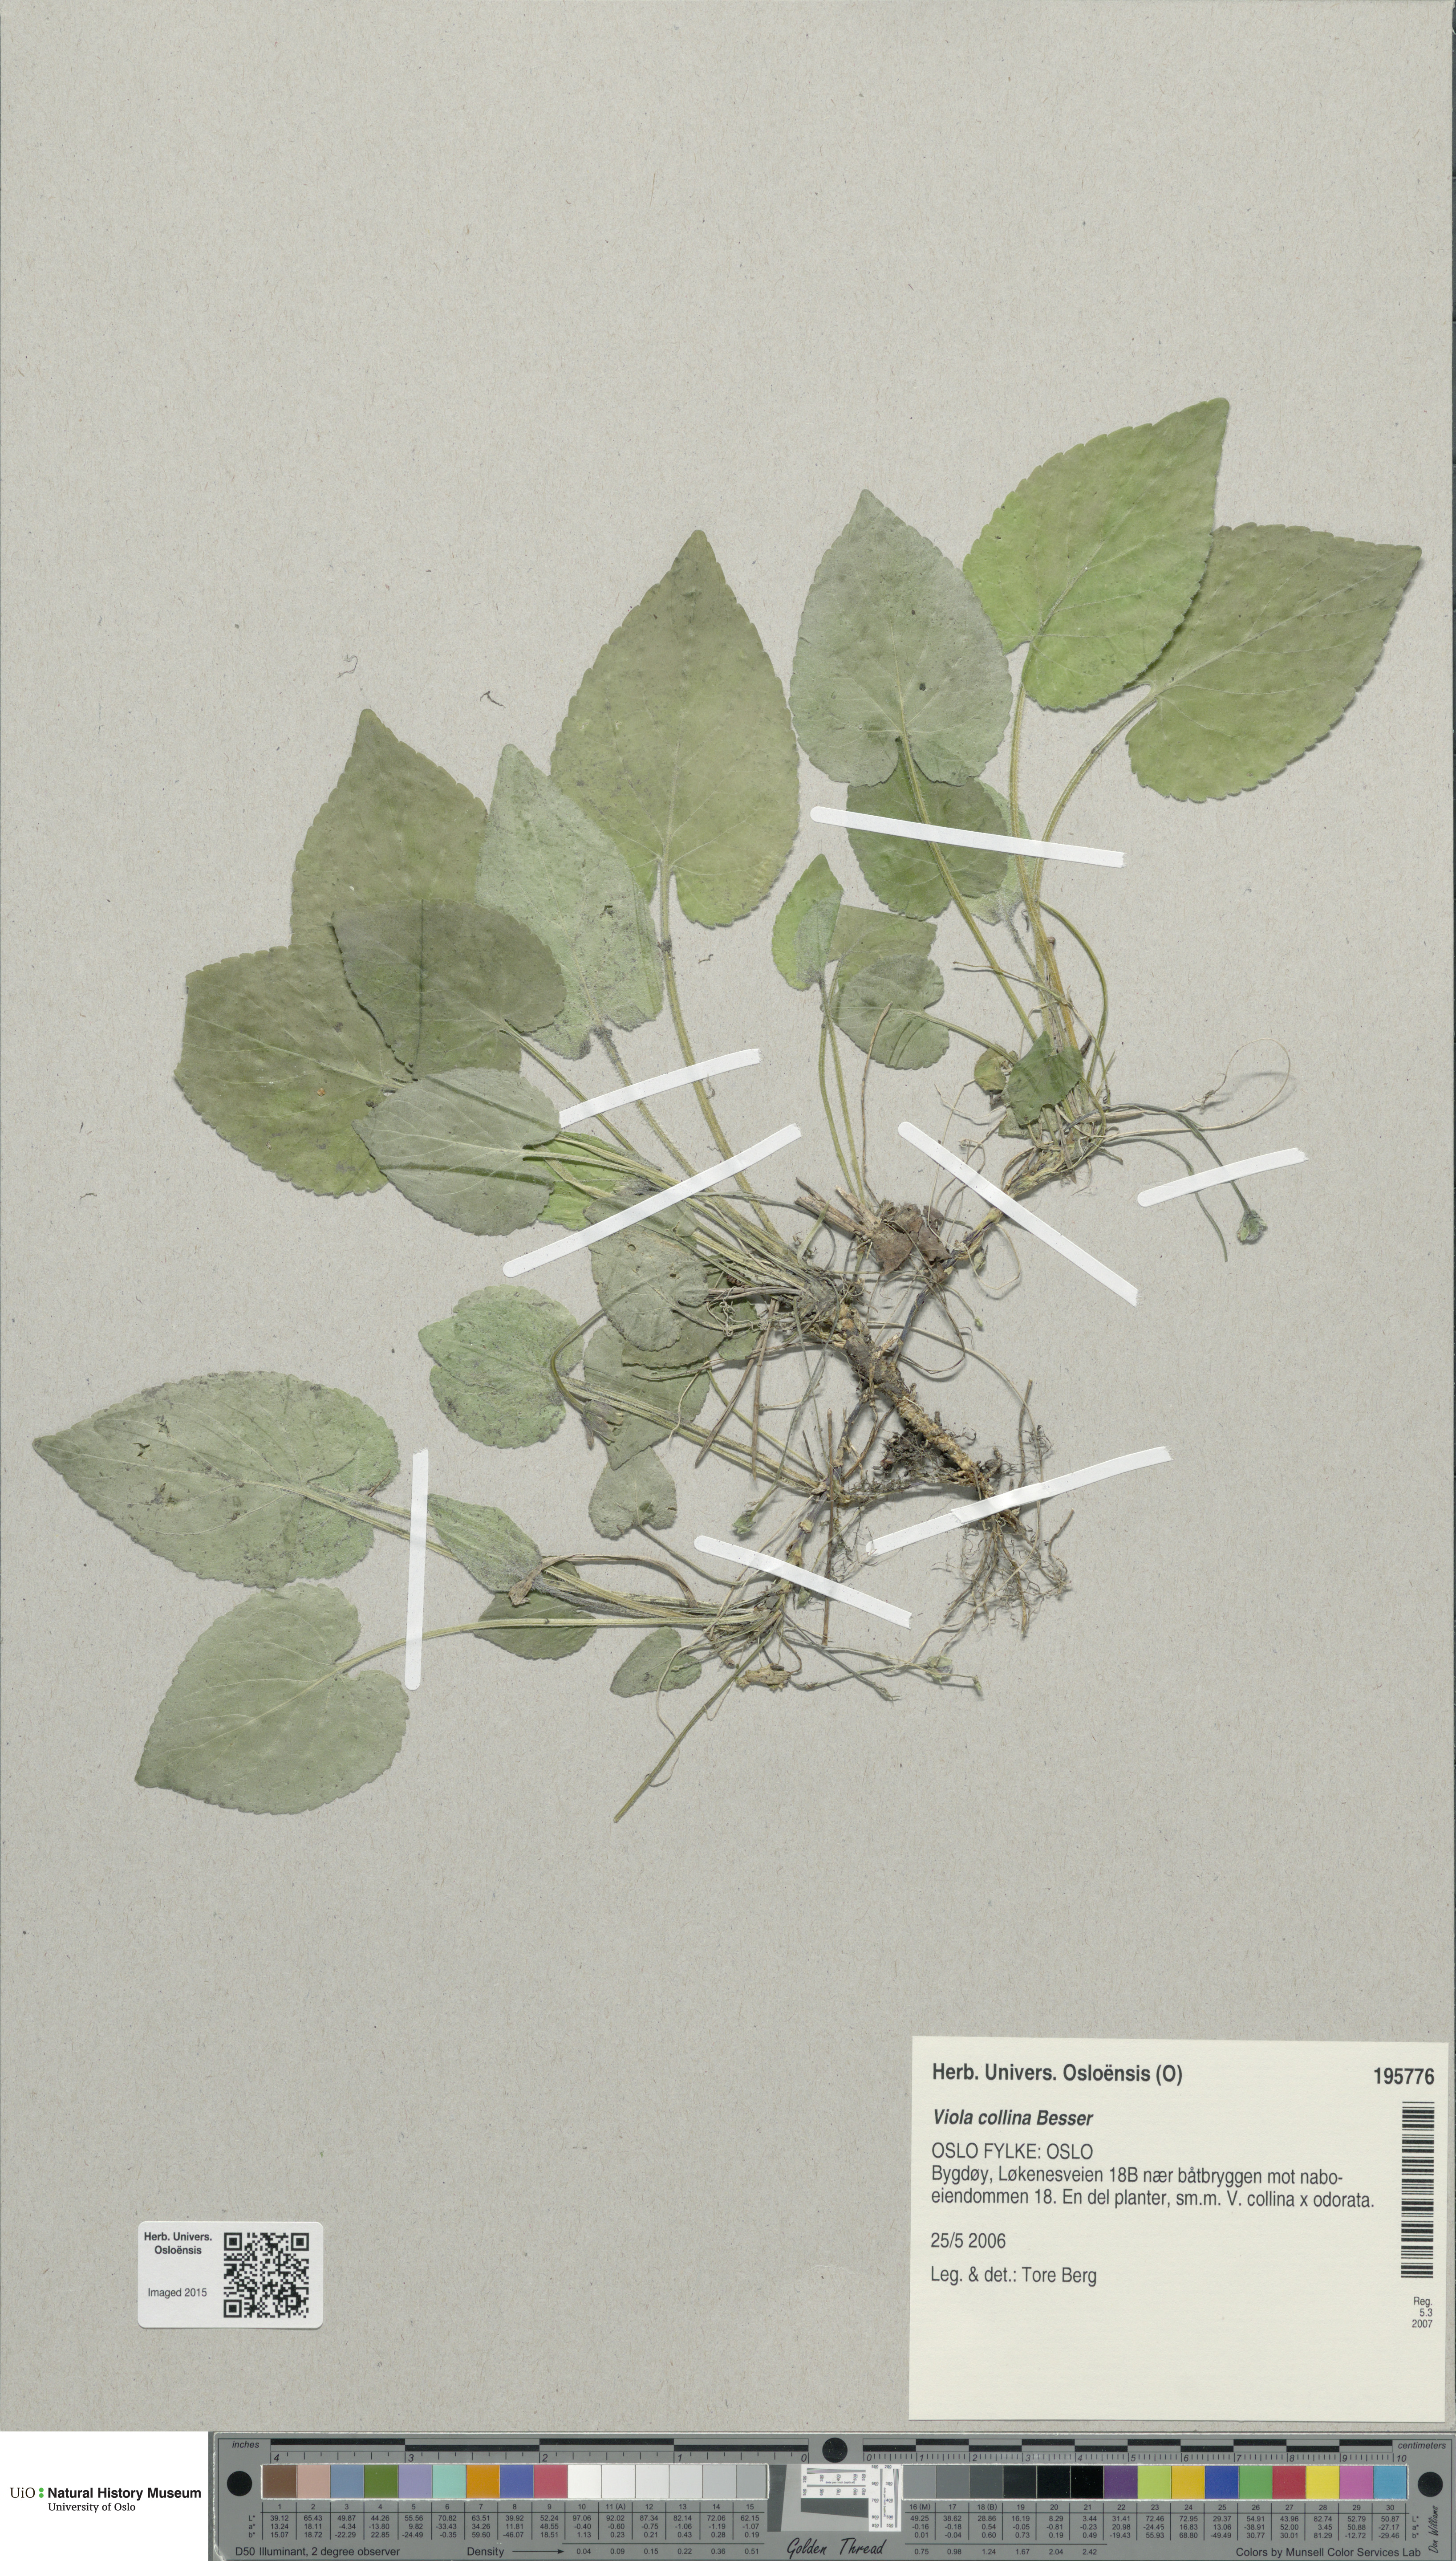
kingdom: Plantae
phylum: Tracheophyta
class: Magnoliopsida
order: Malpighiales
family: Violaceae
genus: Viola
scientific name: Viola collina
